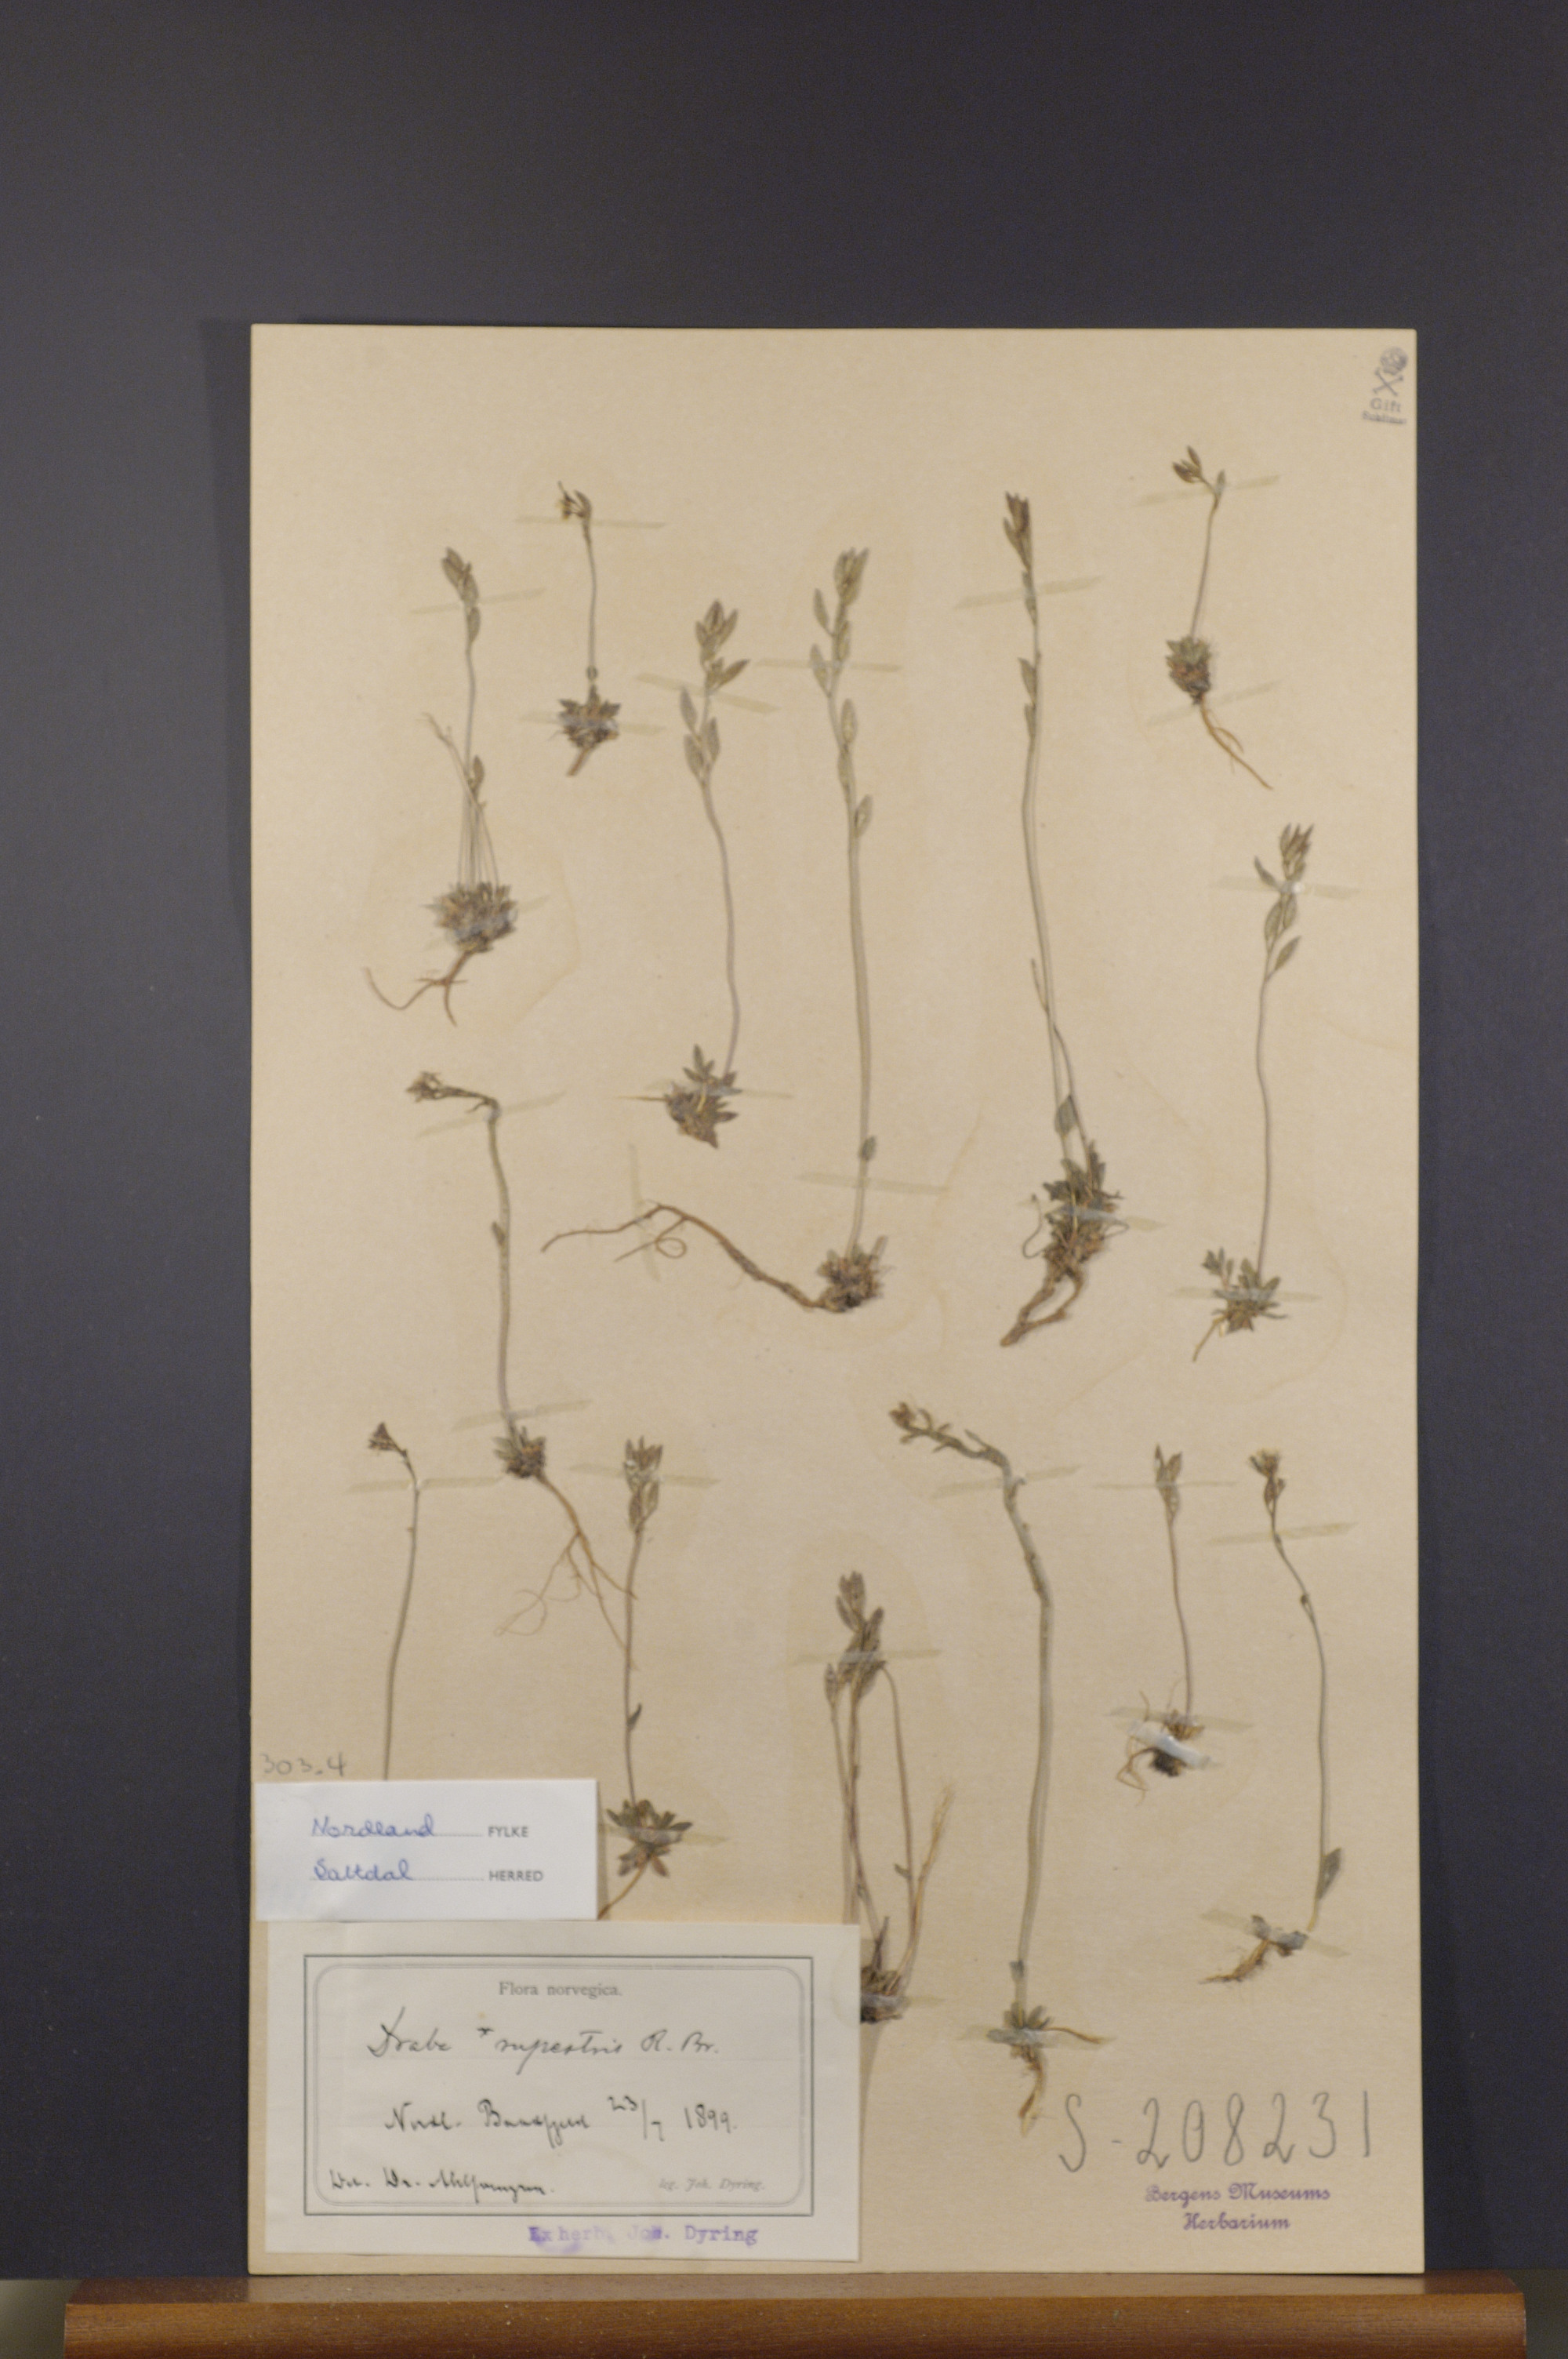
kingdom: Plantae
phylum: Tracheophyta
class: Magnoliopsida
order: Brassicales
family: Brassicaceae
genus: Draba
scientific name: Draba norvegica
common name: Rock whitlowgrass
